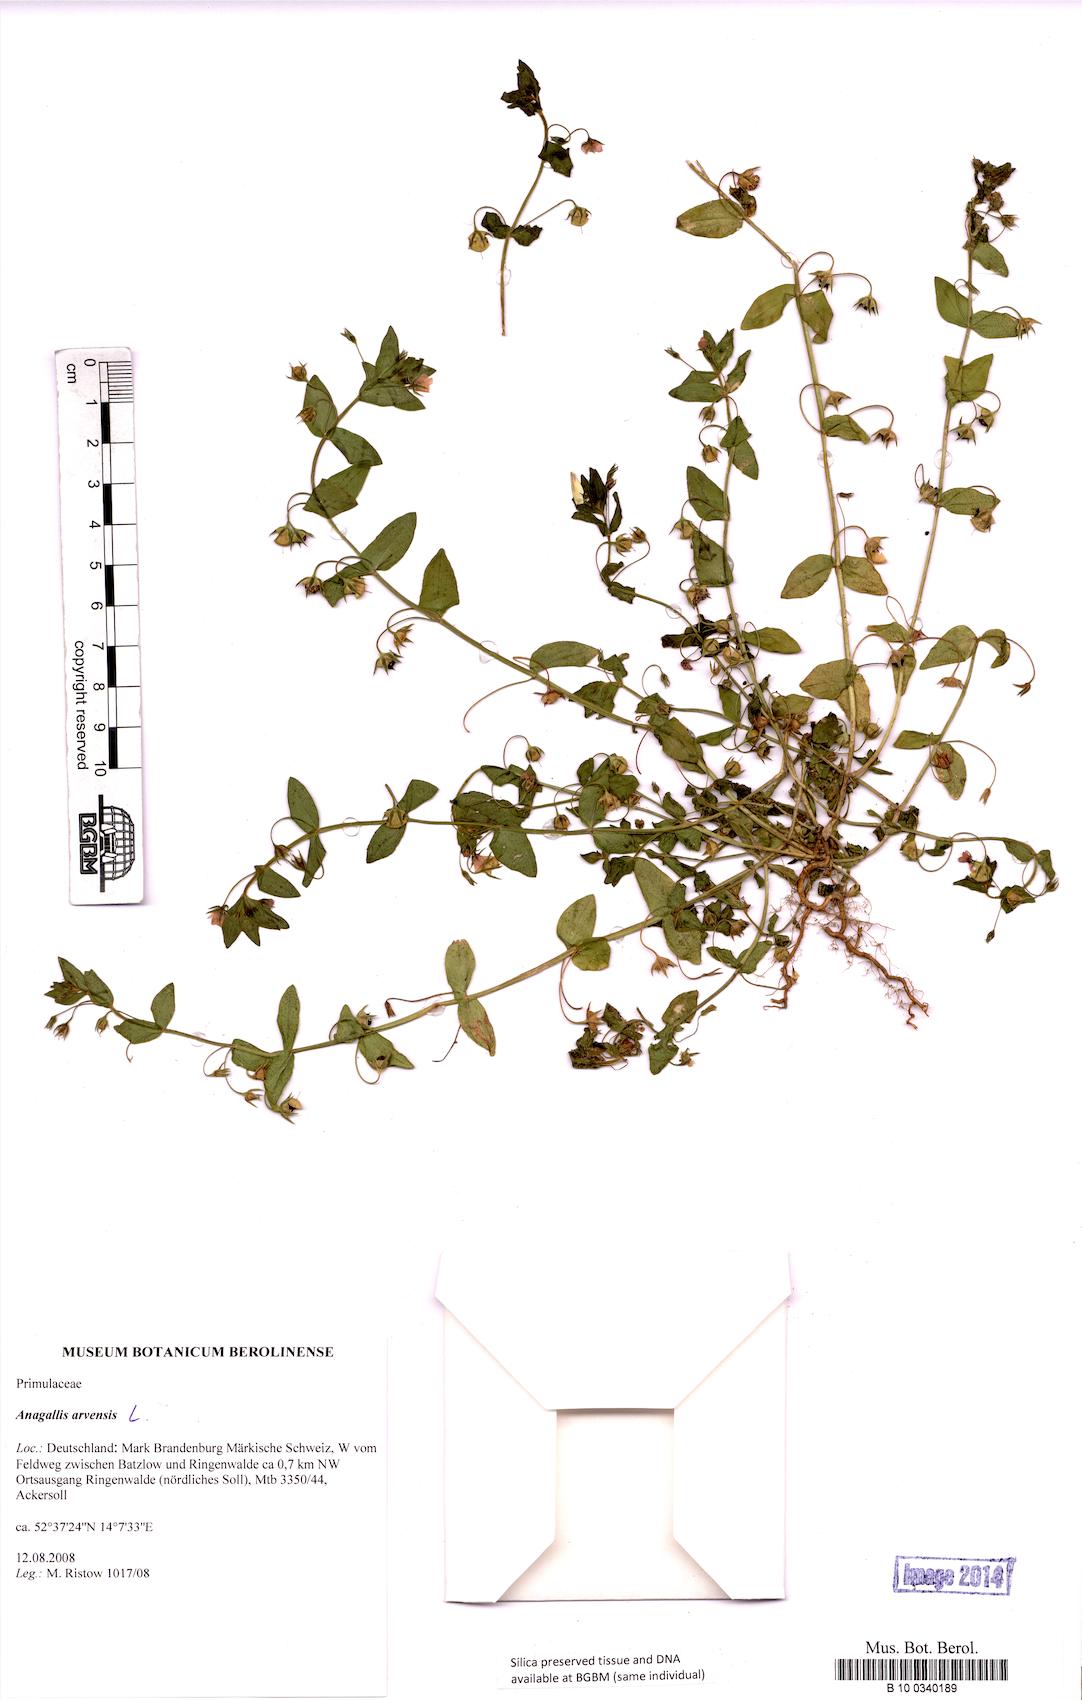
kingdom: Plantae
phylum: Tracheophyta
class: Magnoliopsida
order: Ericales
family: Primulaceae
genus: Lysimachia
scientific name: Lysimachia arvensis
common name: Scarlet pimpernel
